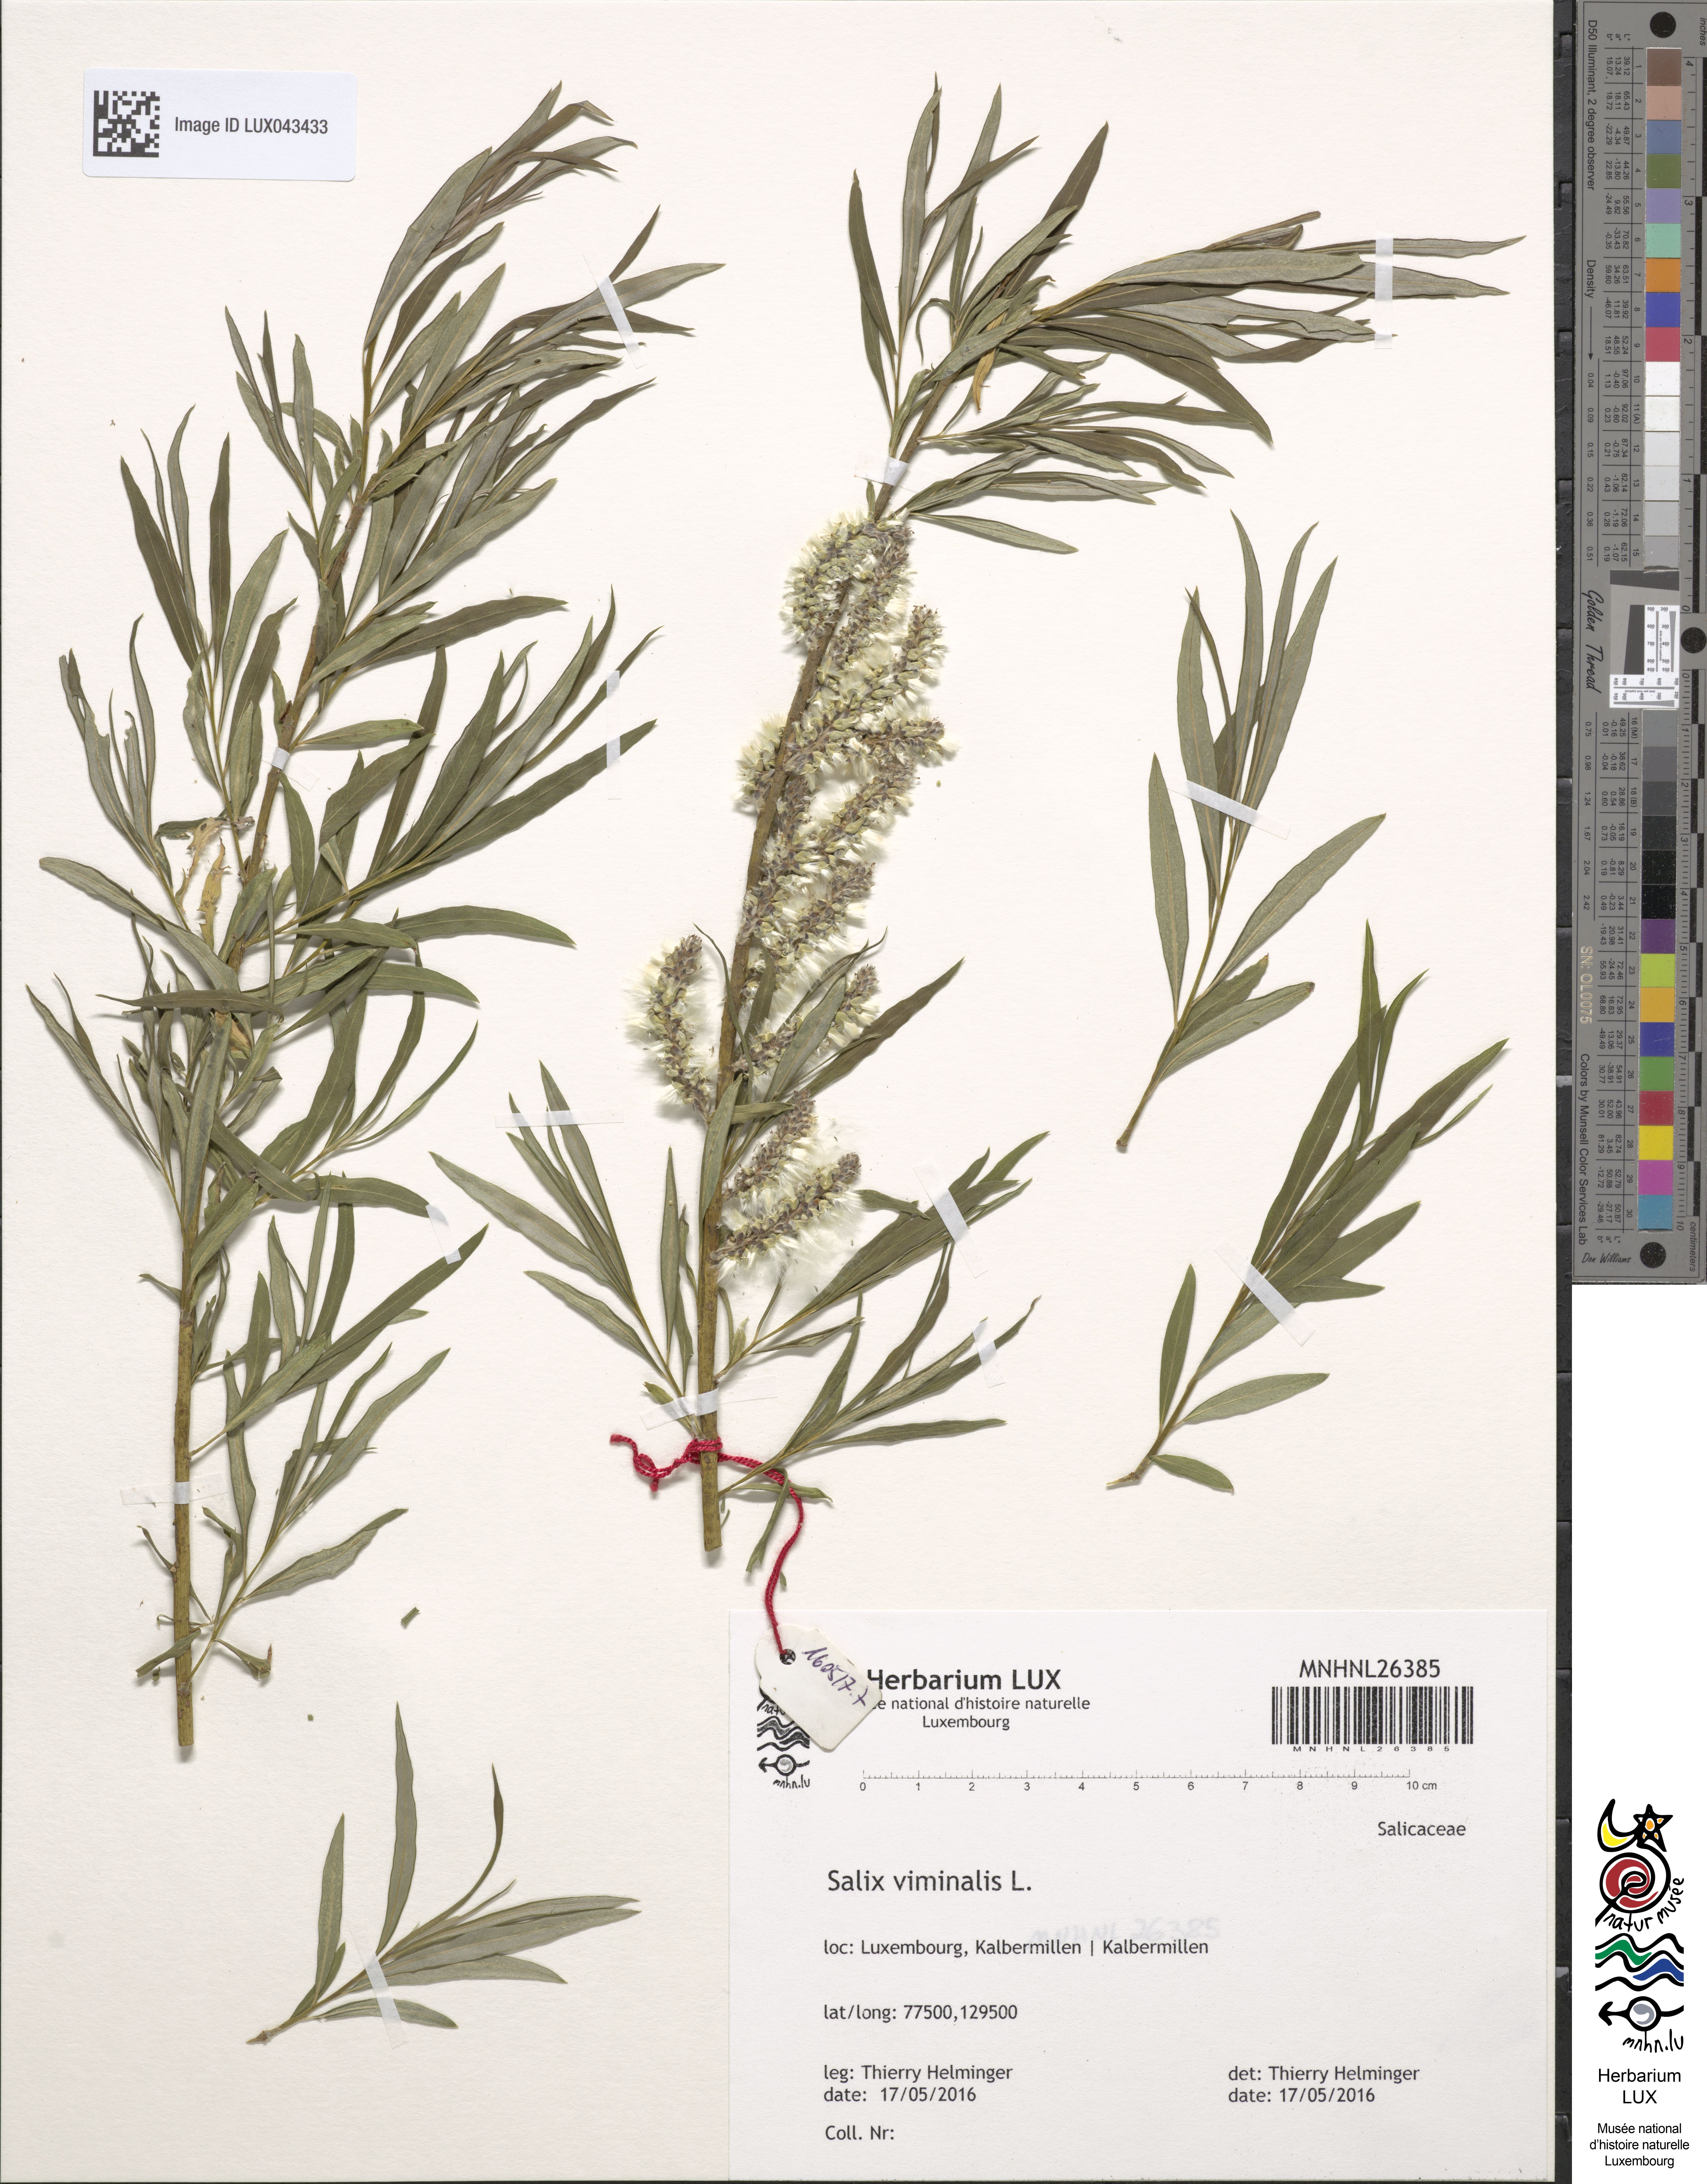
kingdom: Plantae
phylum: Tracheophyta
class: Magnoliopsida
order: Malpighiales
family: Salicaceae
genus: Salix
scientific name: Salix viminalis
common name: Osier
